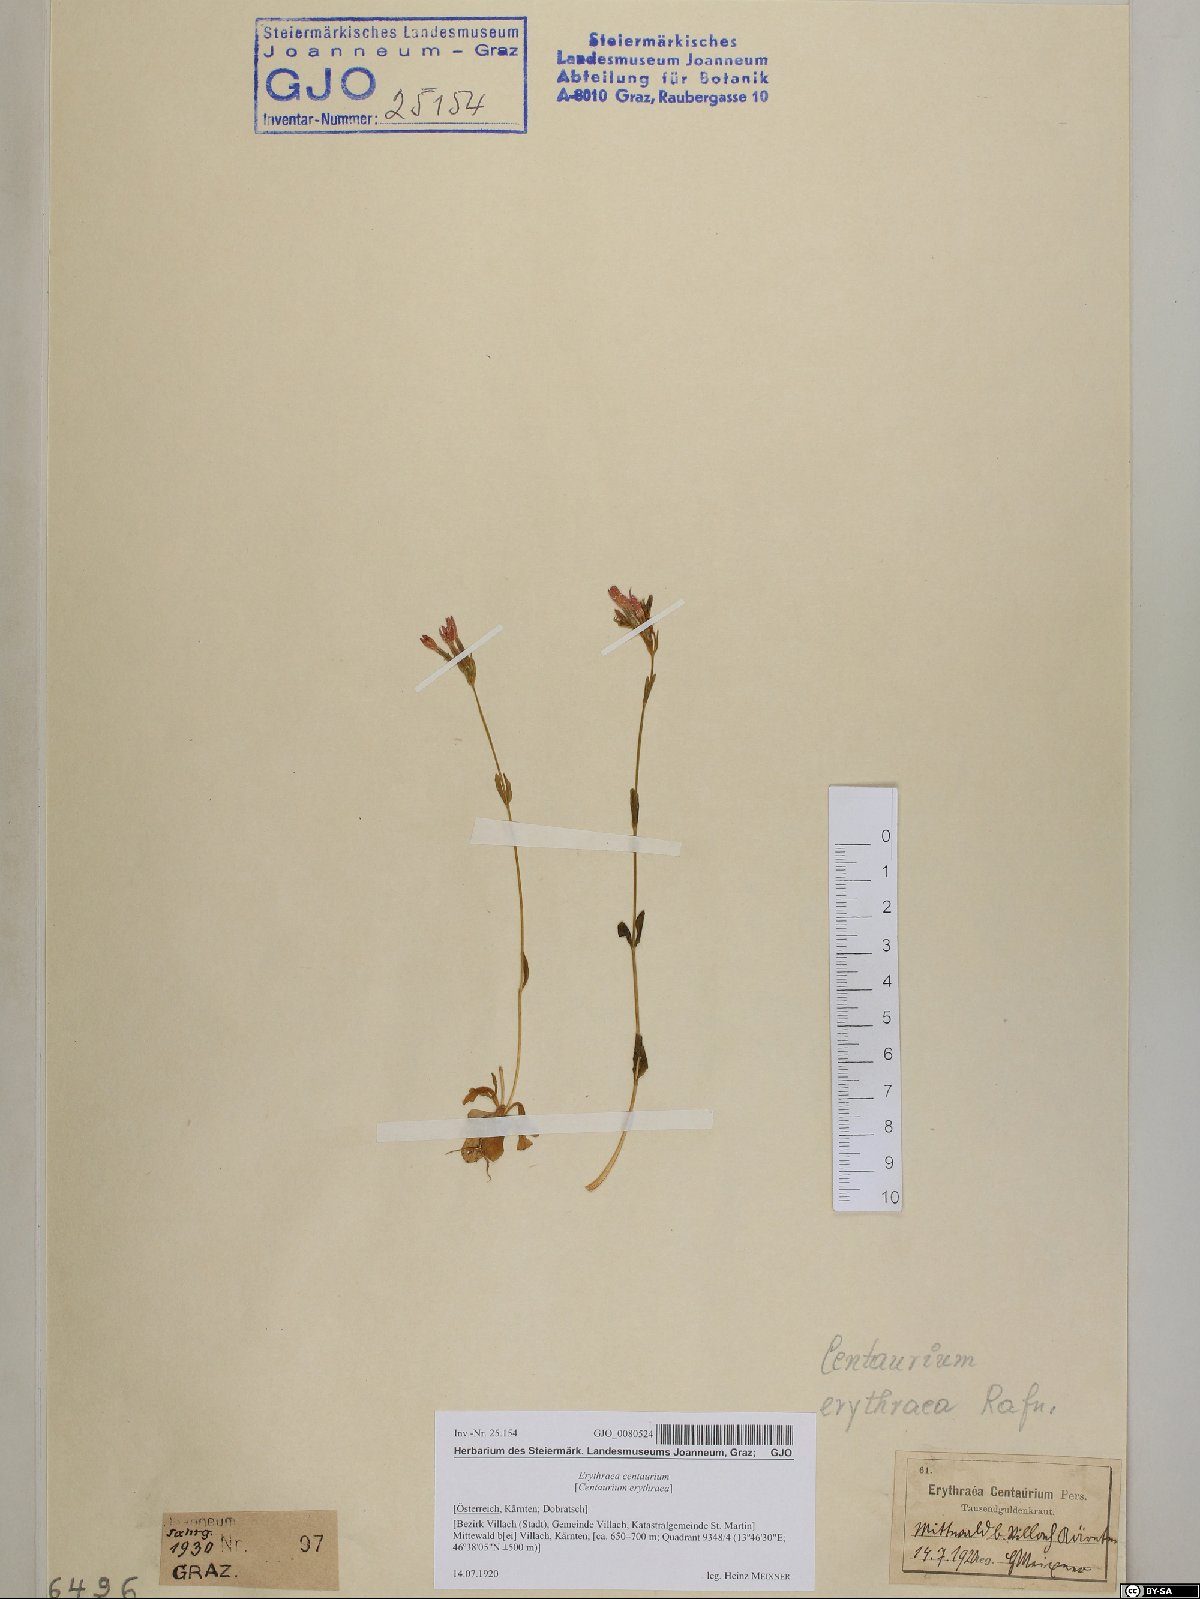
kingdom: Plantae
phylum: Tracheophyta
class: Magnoliopsida
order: Gentianales
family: Gentianaceae
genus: Centaurium
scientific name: Centaurium erythraea
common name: Common centaury
